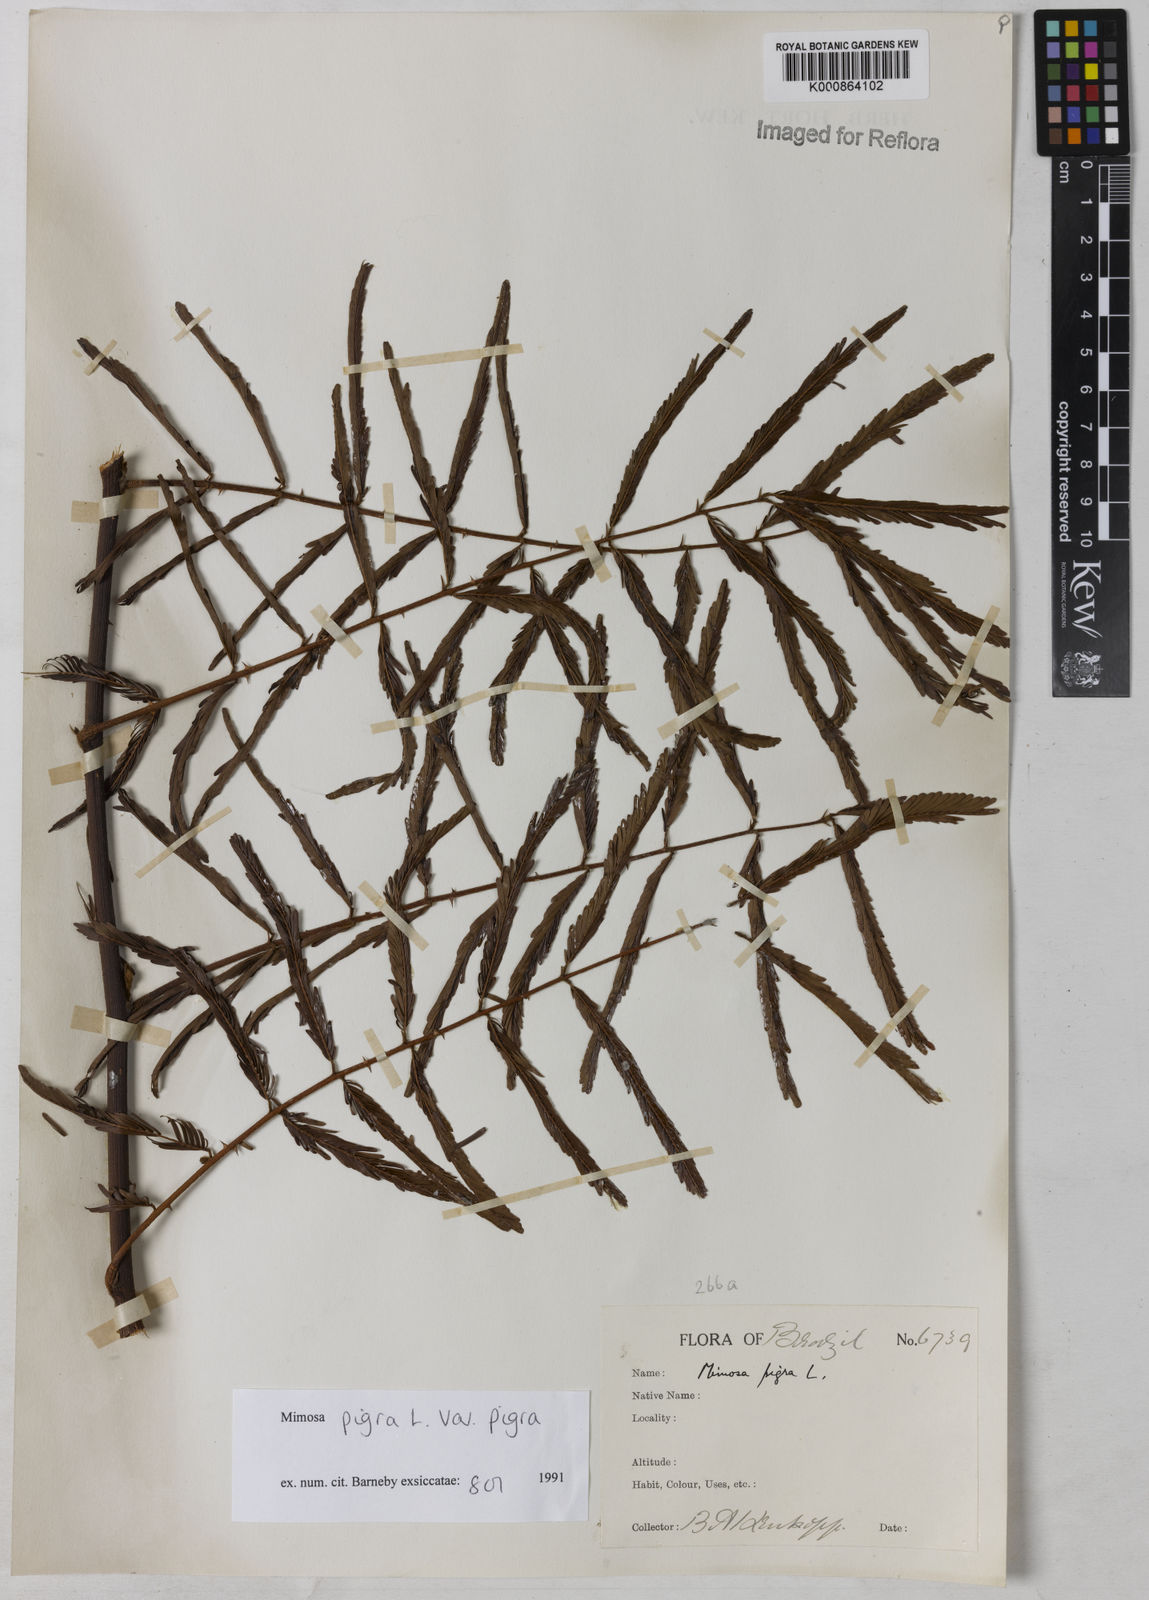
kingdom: Plantae
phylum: Tracheophyta
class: Magnoliopsida
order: Fabales
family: Fabaceae
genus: Mimosa
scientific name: Mimosa pigra
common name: Black mimosa
